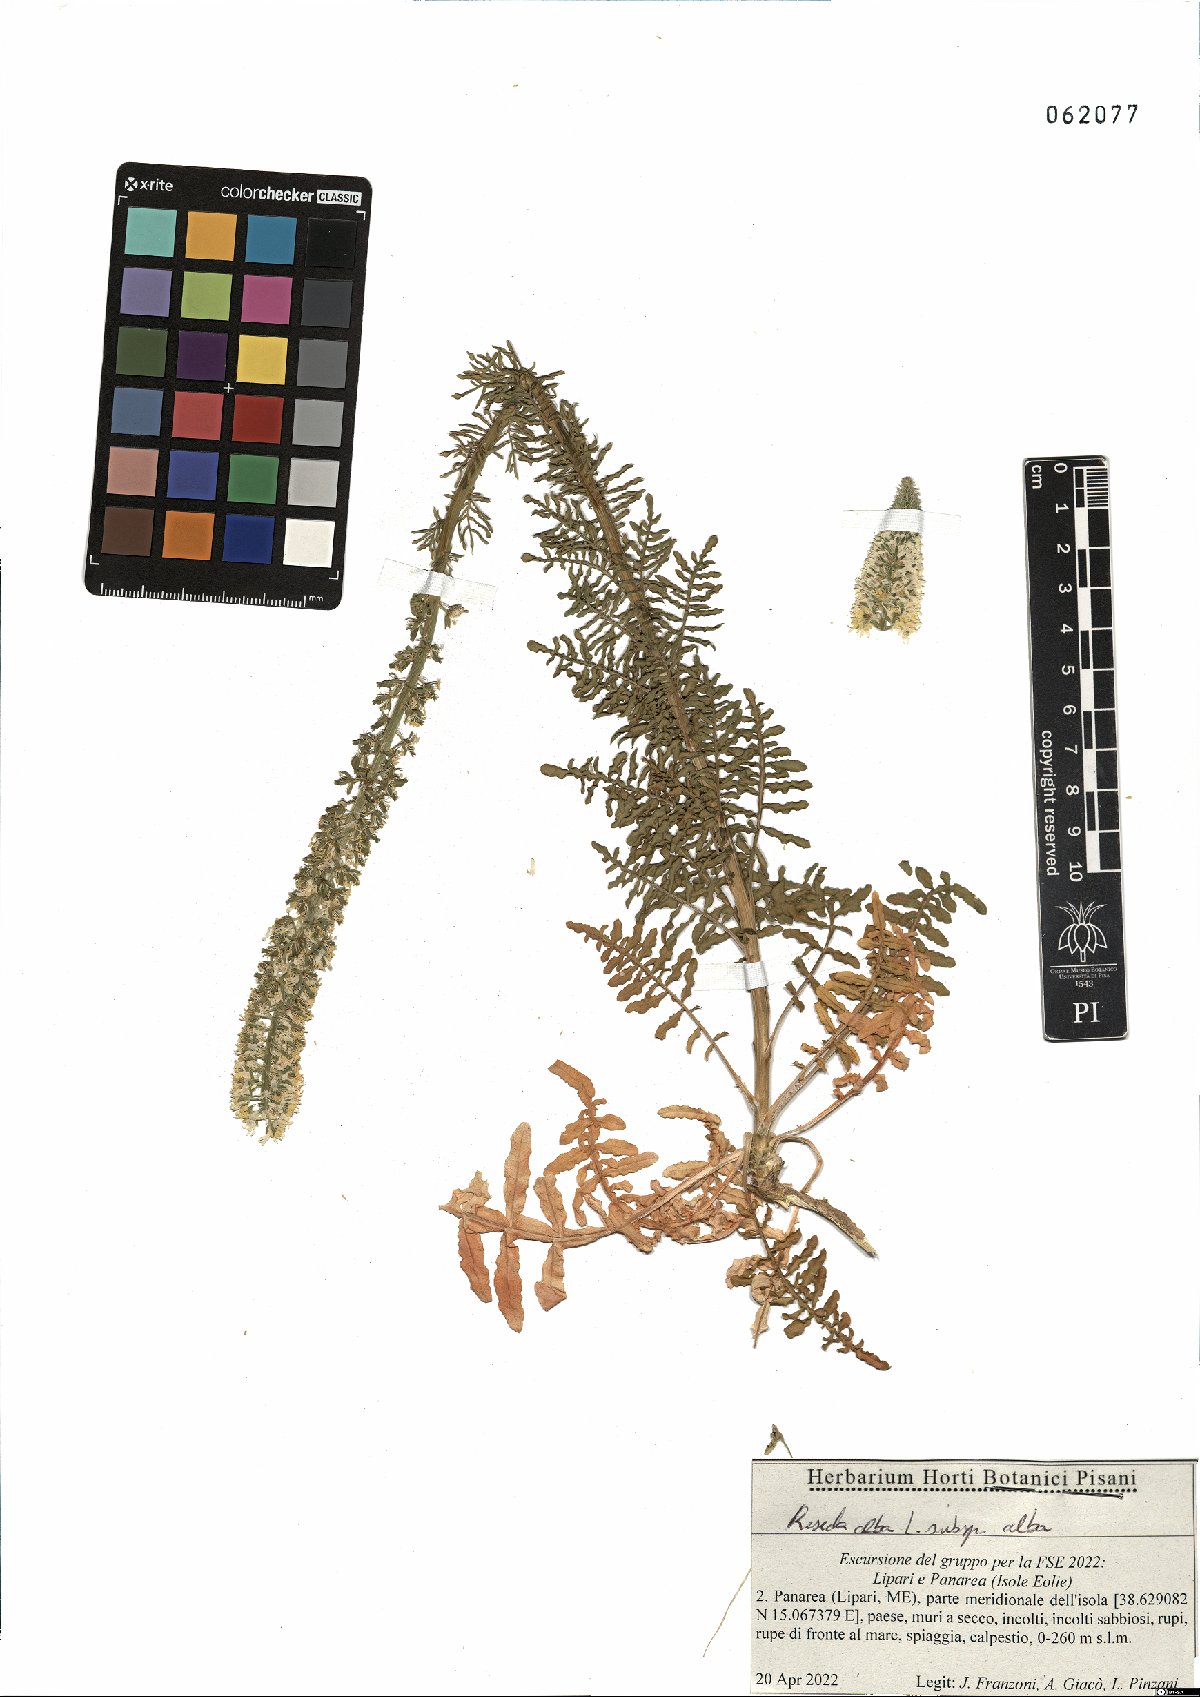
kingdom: Plantae
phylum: Tracheophyta
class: Magnoliopsida
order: Brassicales
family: Resedaceae
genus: Reseda
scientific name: Reseda alba
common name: White mignonette
